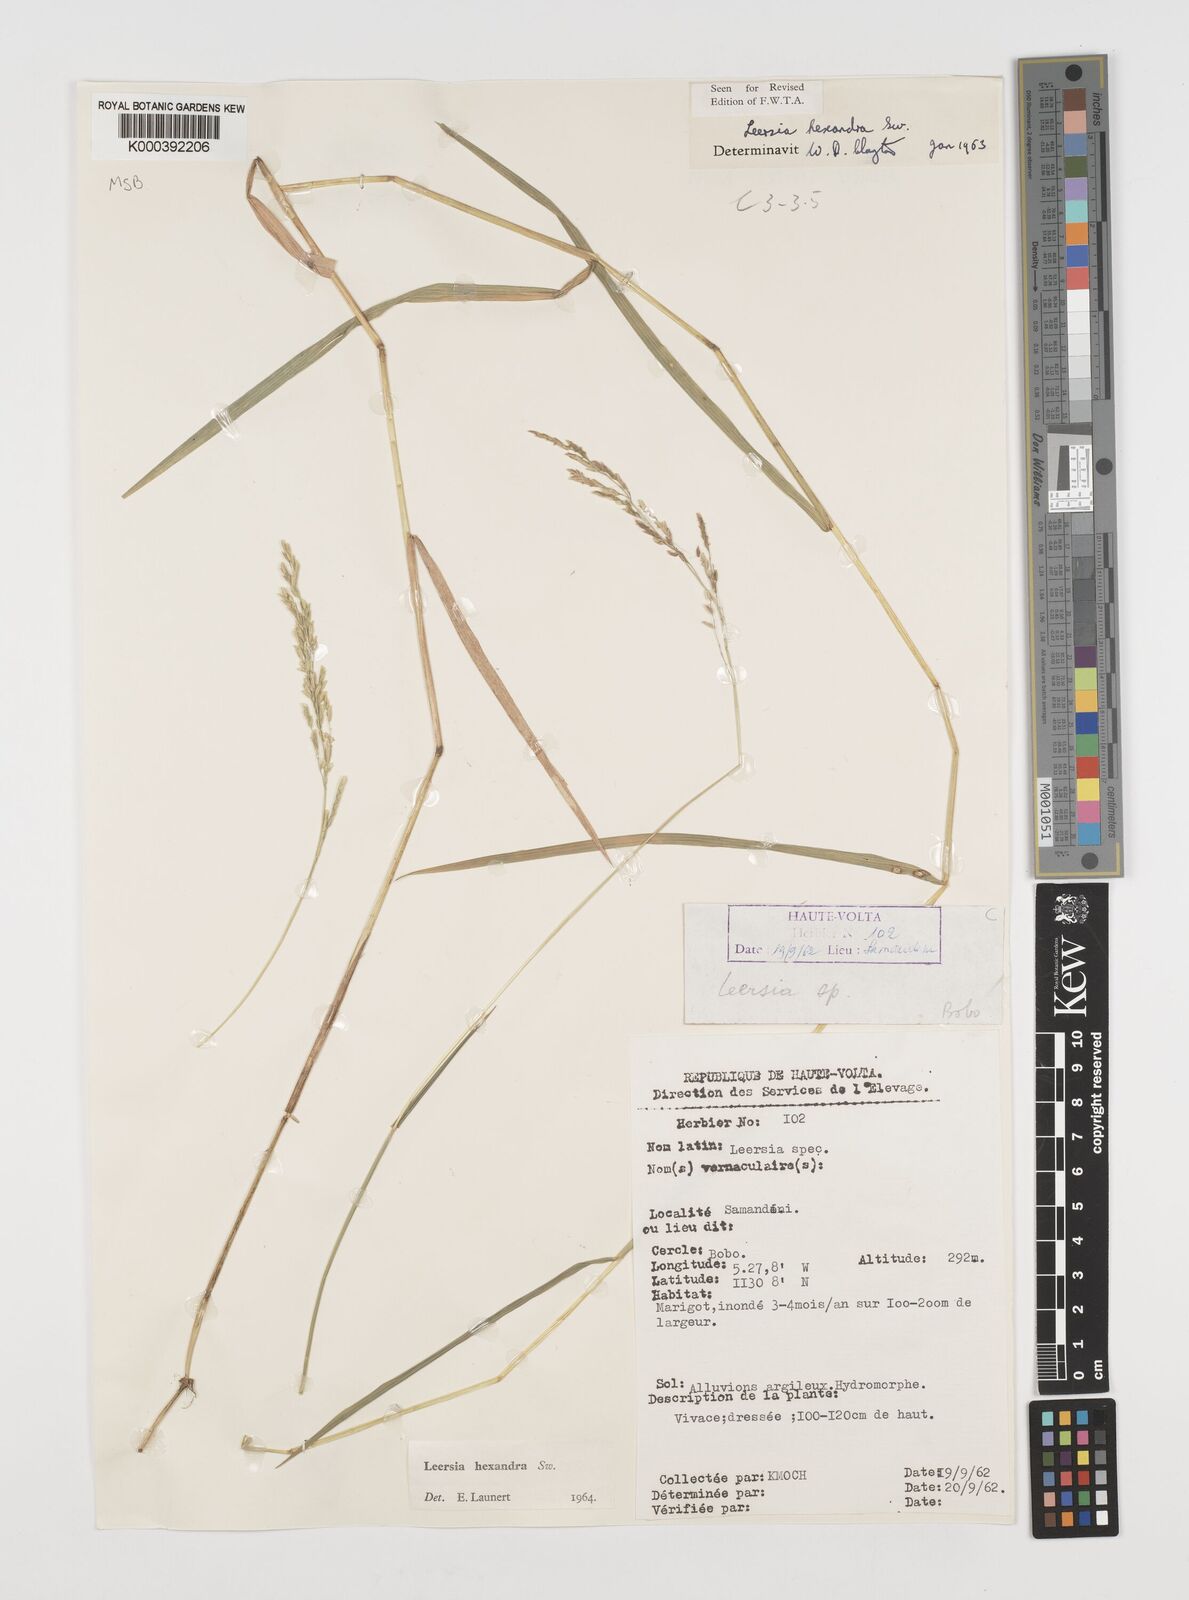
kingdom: Plantae
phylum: Tracheophyta
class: Liliopsida
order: Poales
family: Poaceae
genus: Leersia
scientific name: Leersia hexandra
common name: Southern cut grass
